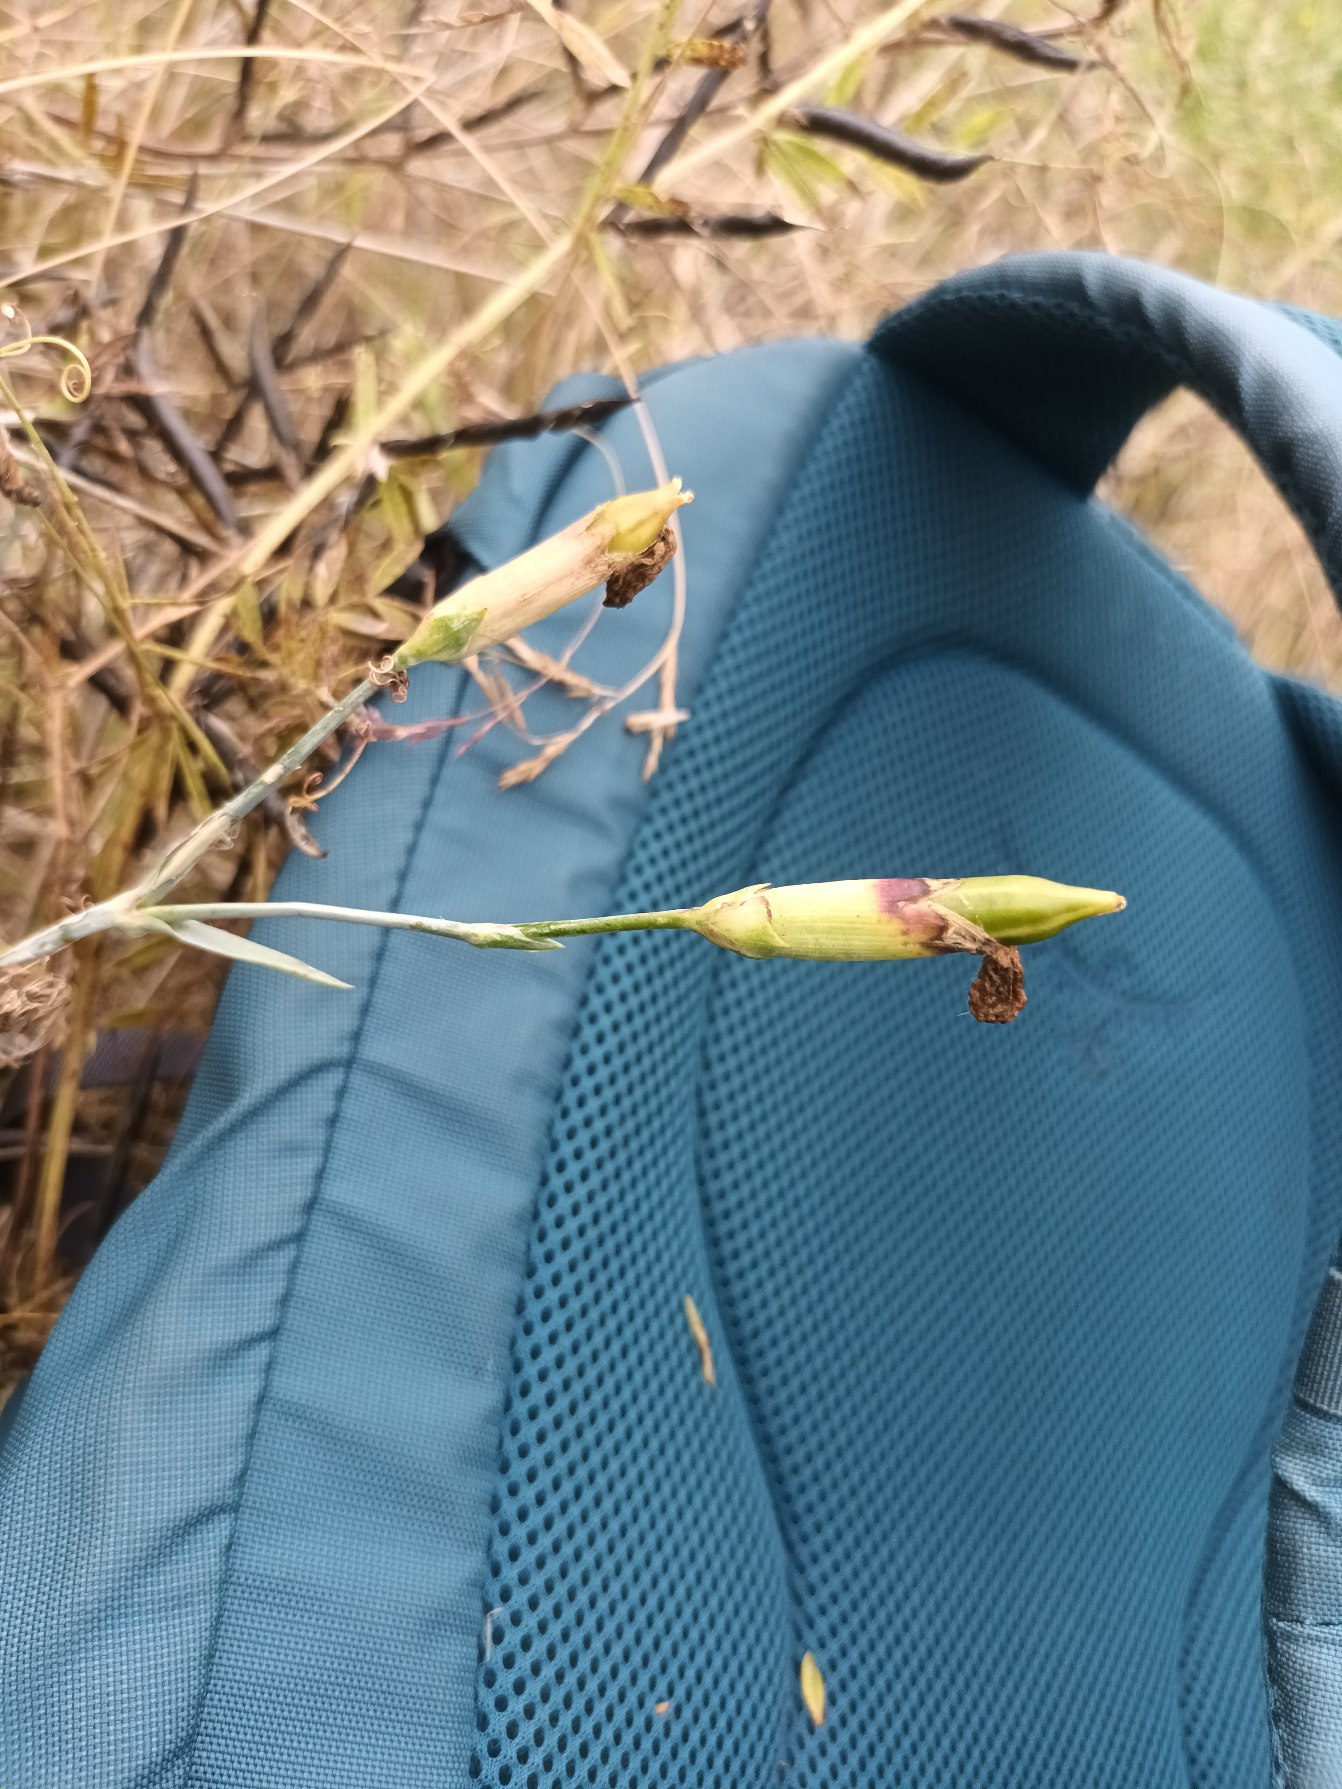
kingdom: Plantae
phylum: Tracheophyta
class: Magnoliopsida
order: Caryophyllales
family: Caryophyllaceae
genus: Dianthus
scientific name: Dianthus plumarius
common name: Fjernellike
